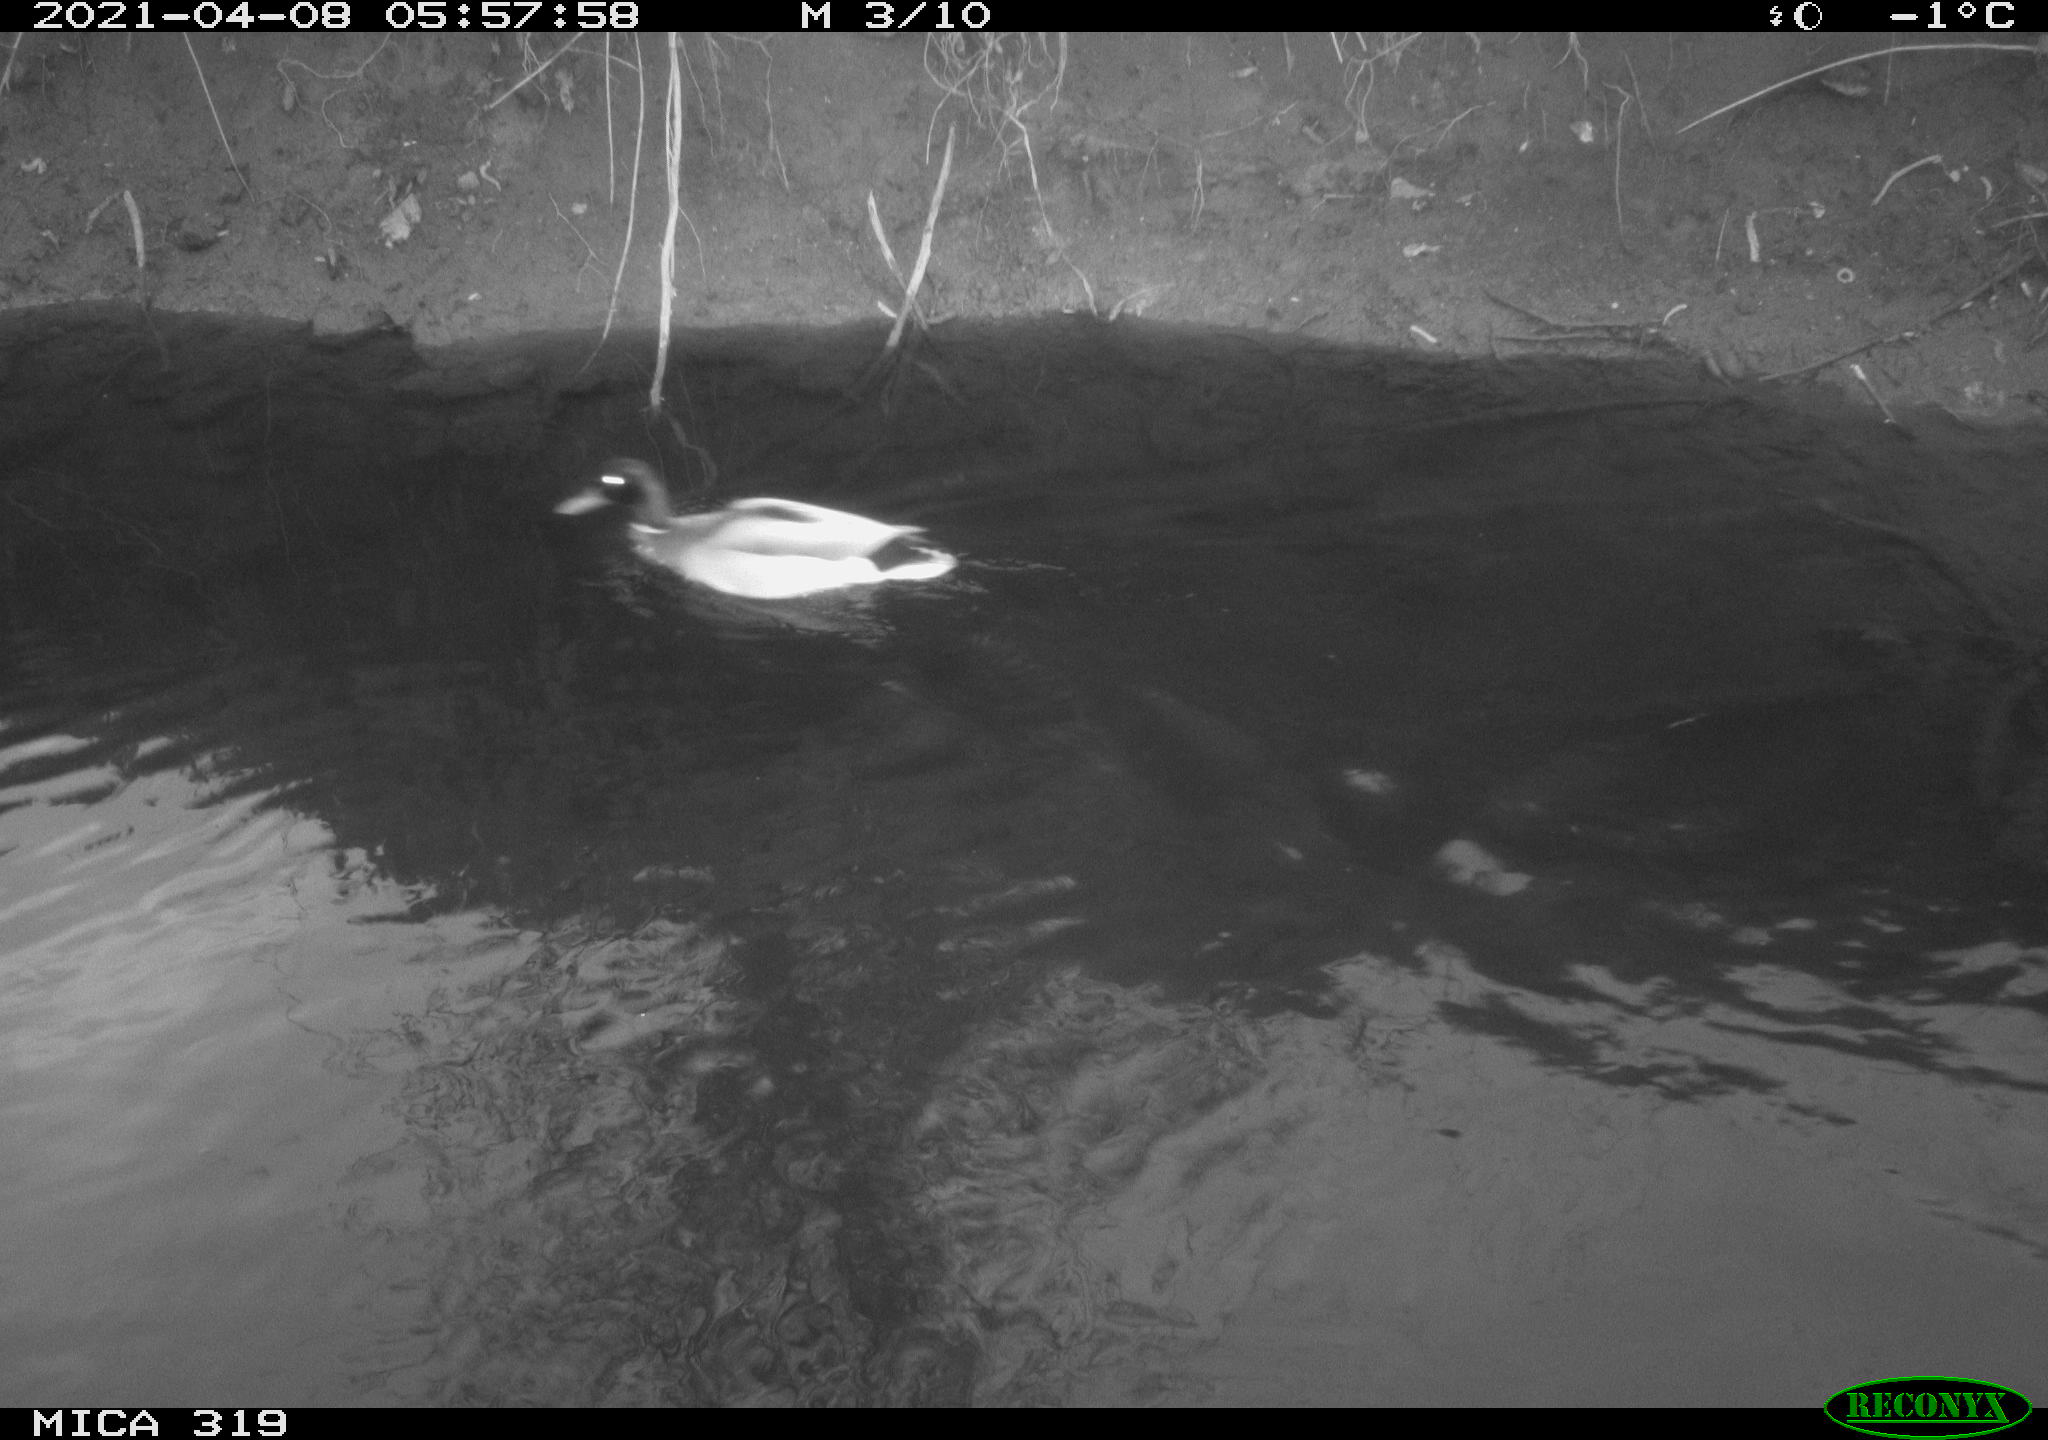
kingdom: Animalia
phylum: Chordata
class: Aves
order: Anseriformes
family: Anatidae
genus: Anas
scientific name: Anas platyrhynchos
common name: Mallard
